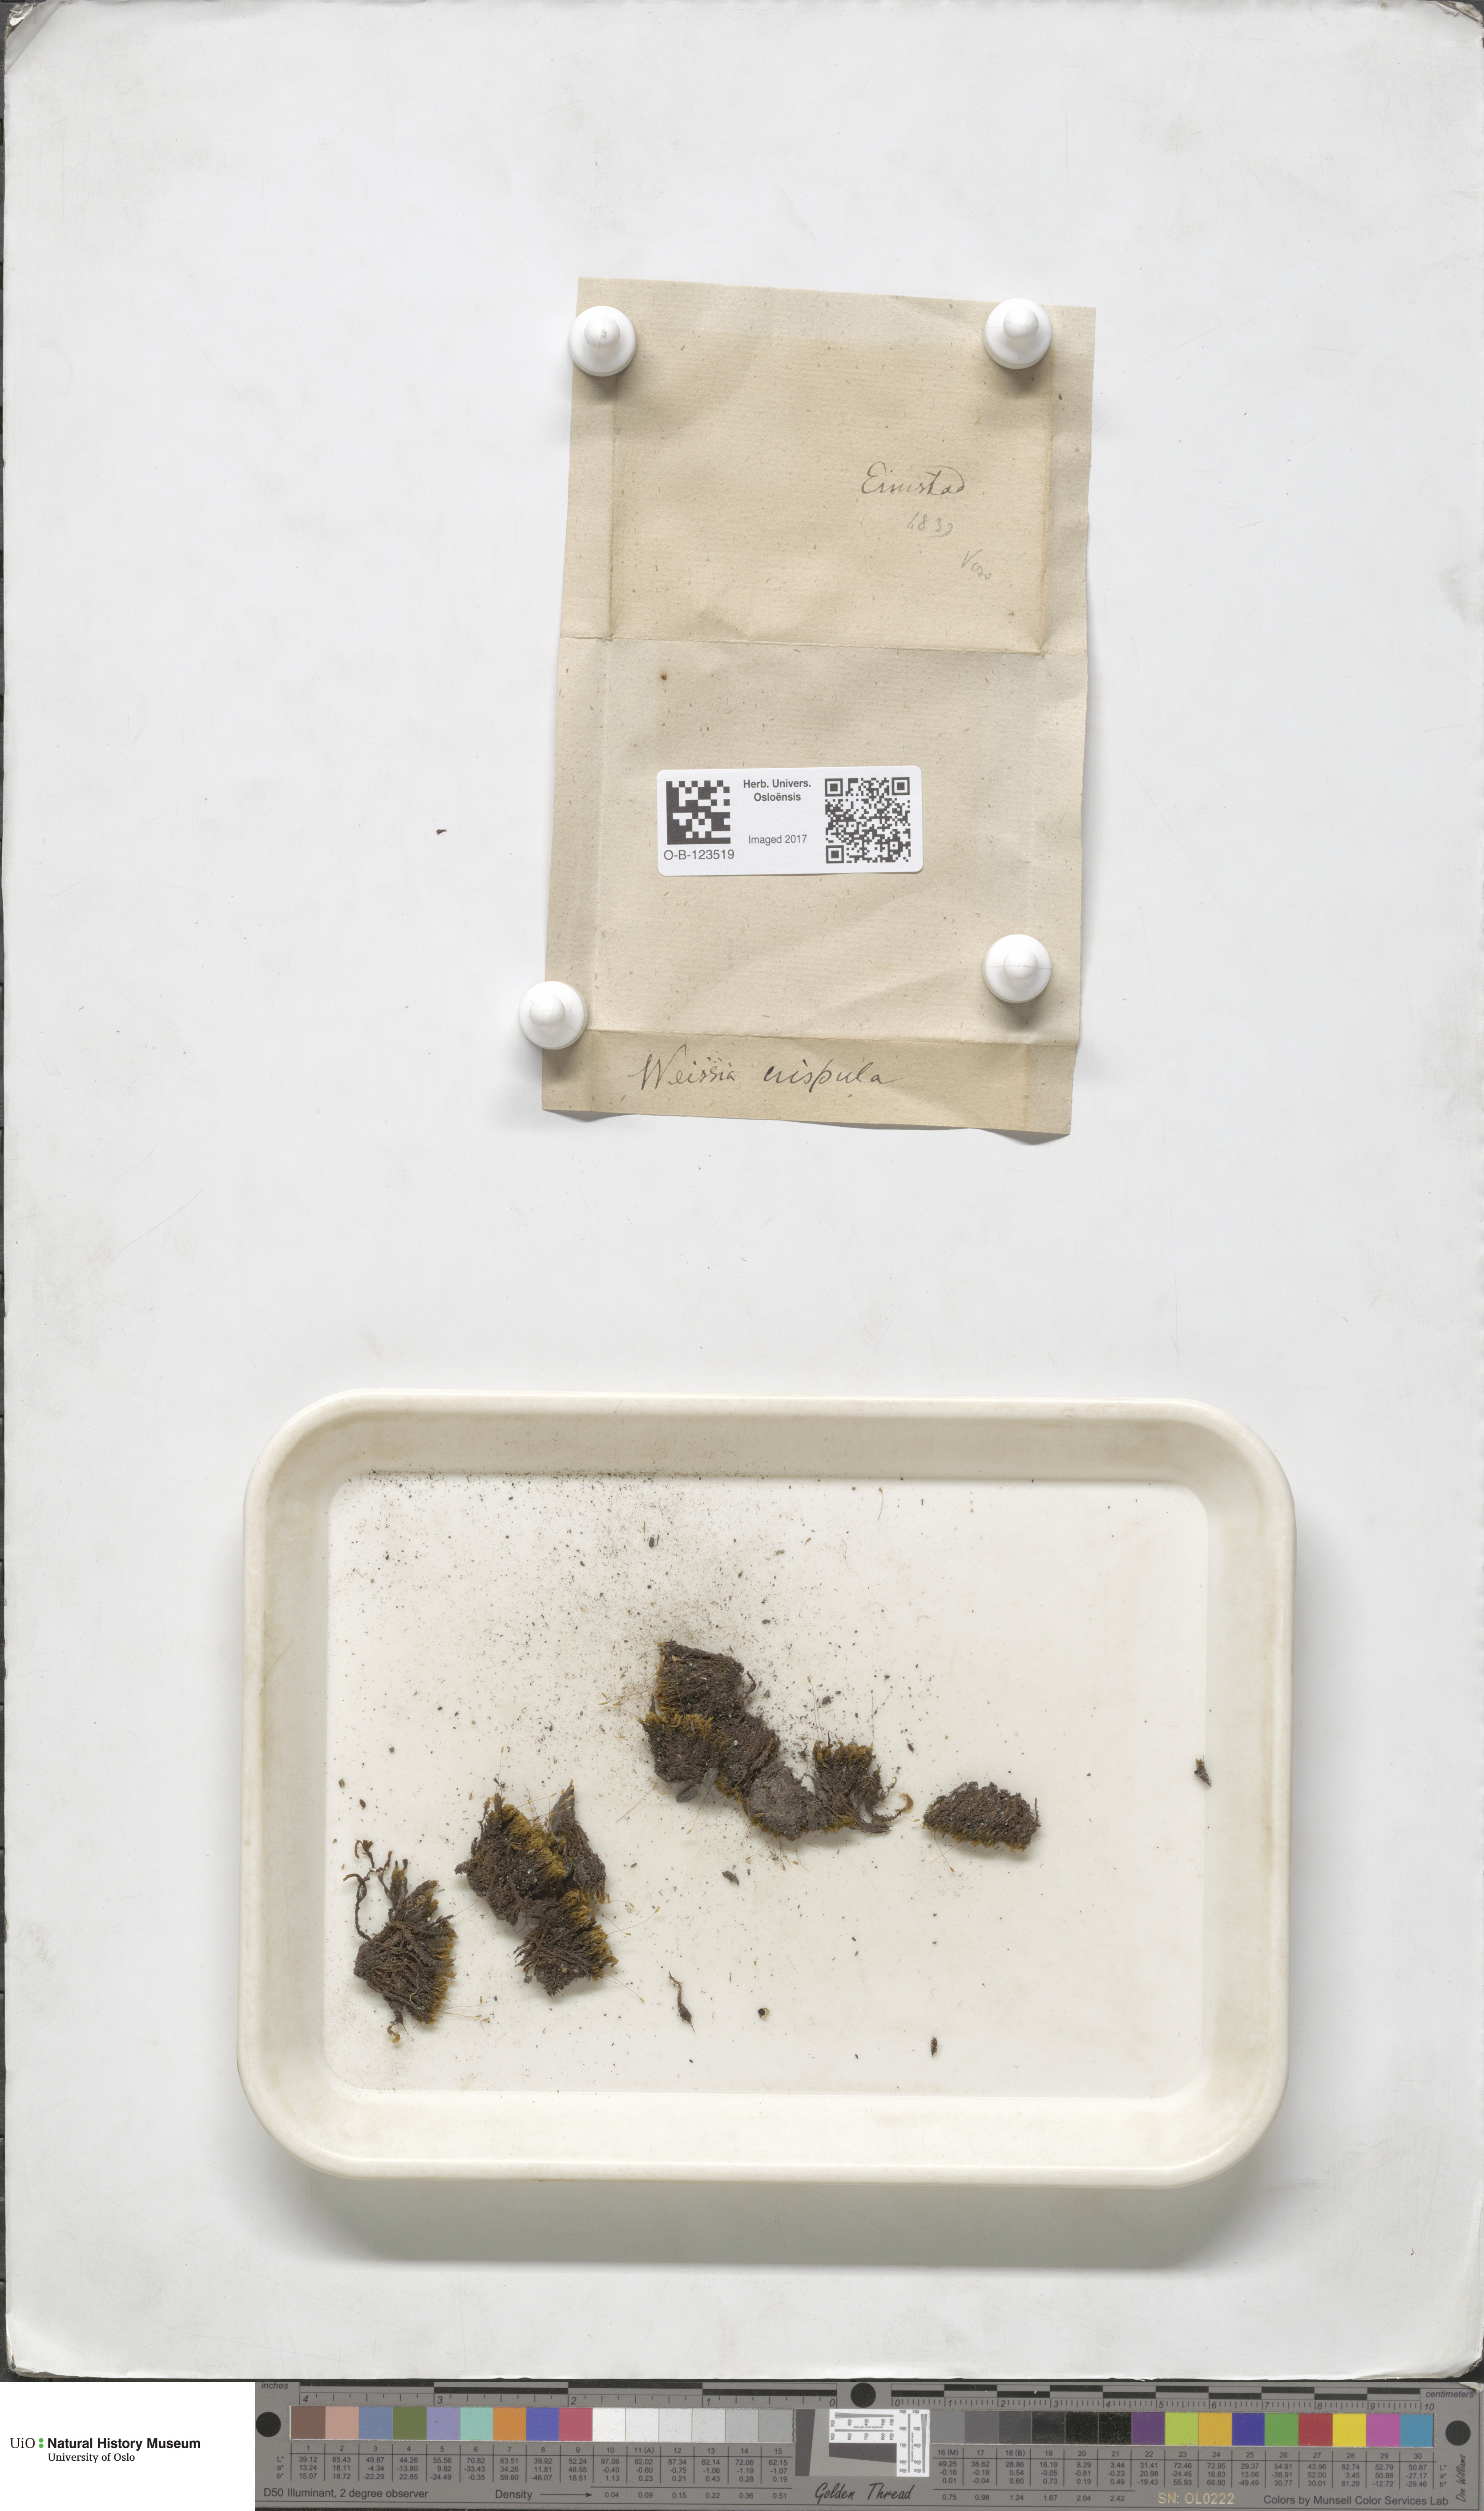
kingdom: Plantae
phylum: Bryophyta
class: Bryopsida
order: Scouleriales
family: Hymenolomataceae
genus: Hymenoloma
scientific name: Hymenoloma crispulum
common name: Mountain pincushion
